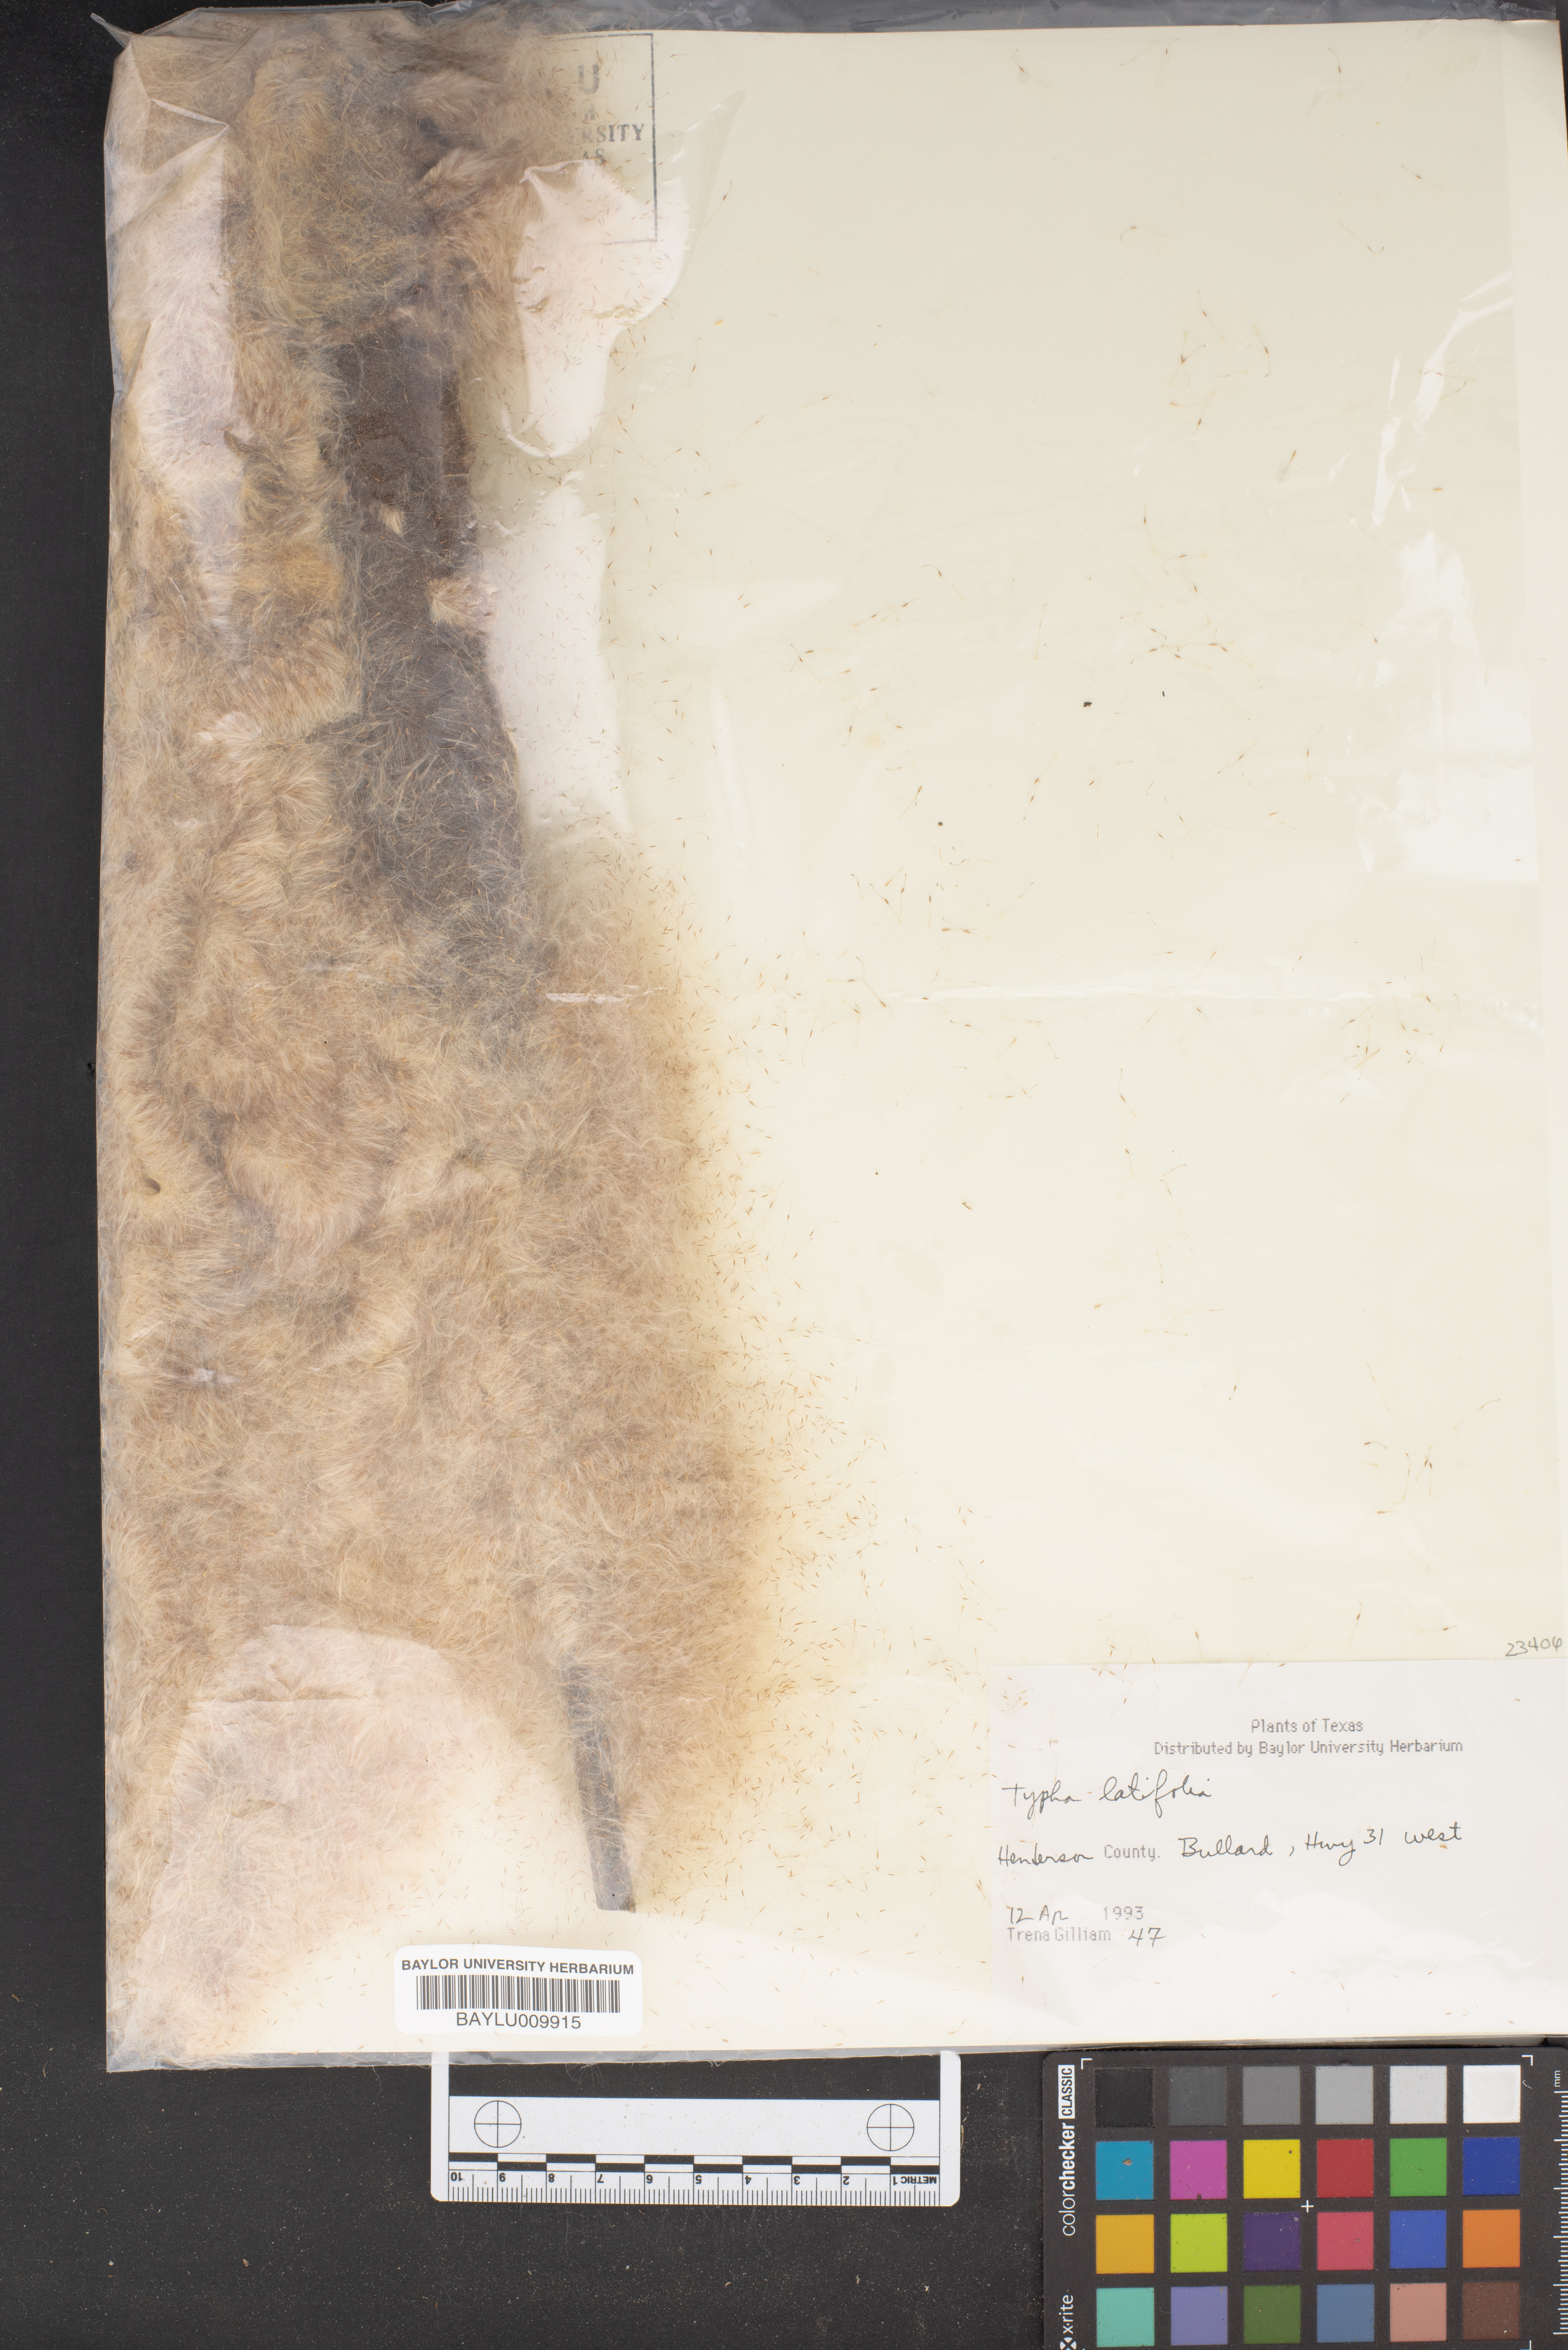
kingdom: Plantae
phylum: Tracheophyta
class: Liliopsida
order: Poales
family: Typhaceae
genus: Typha
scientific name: Typha latifolia
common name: Broadleaf cattail
